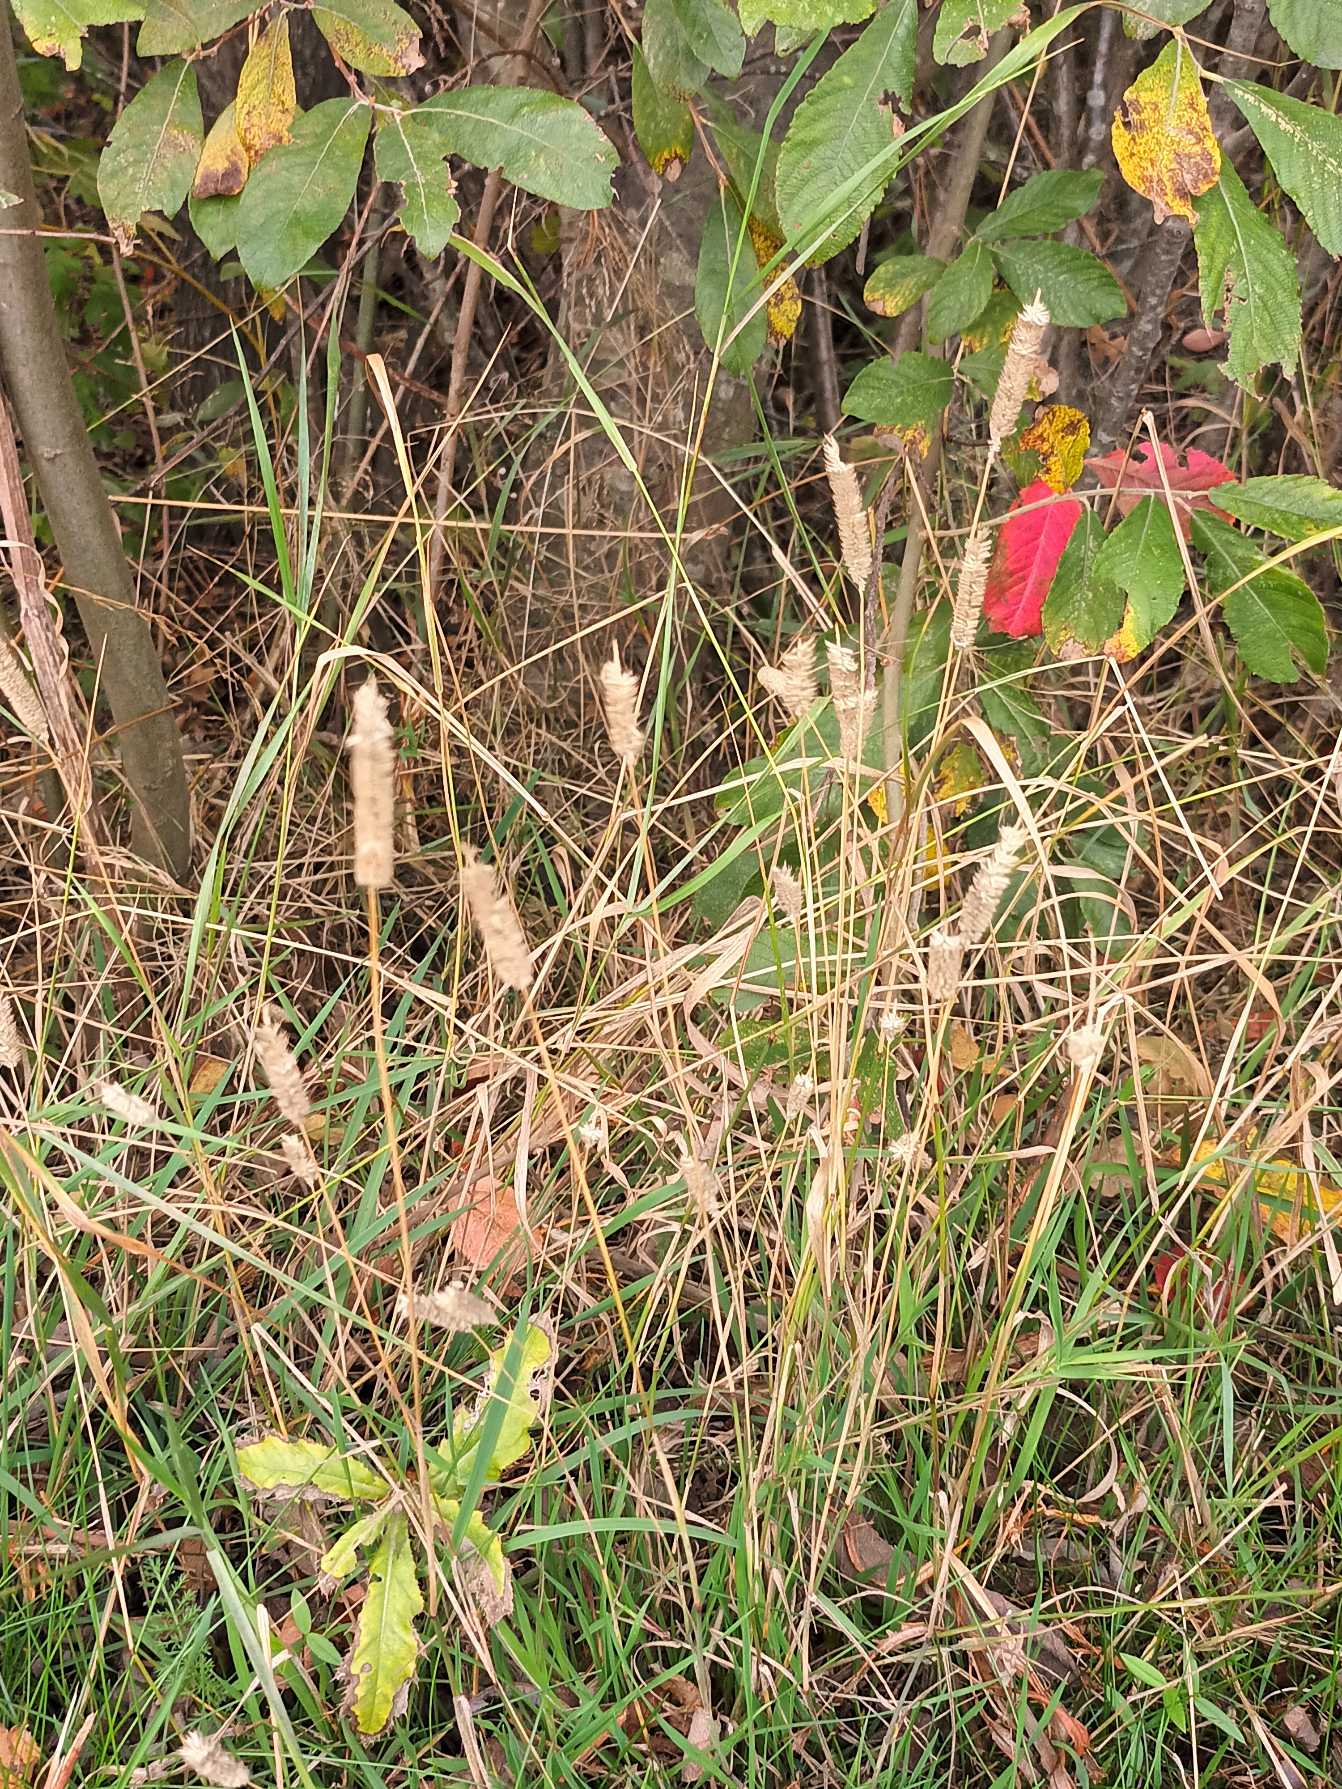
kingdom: Plantae
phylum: Tracheophyta
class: Liliopsida
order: Poales
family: Poaceae
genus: Phleum
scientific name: Phleum pratense
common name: Eng-rottehale
